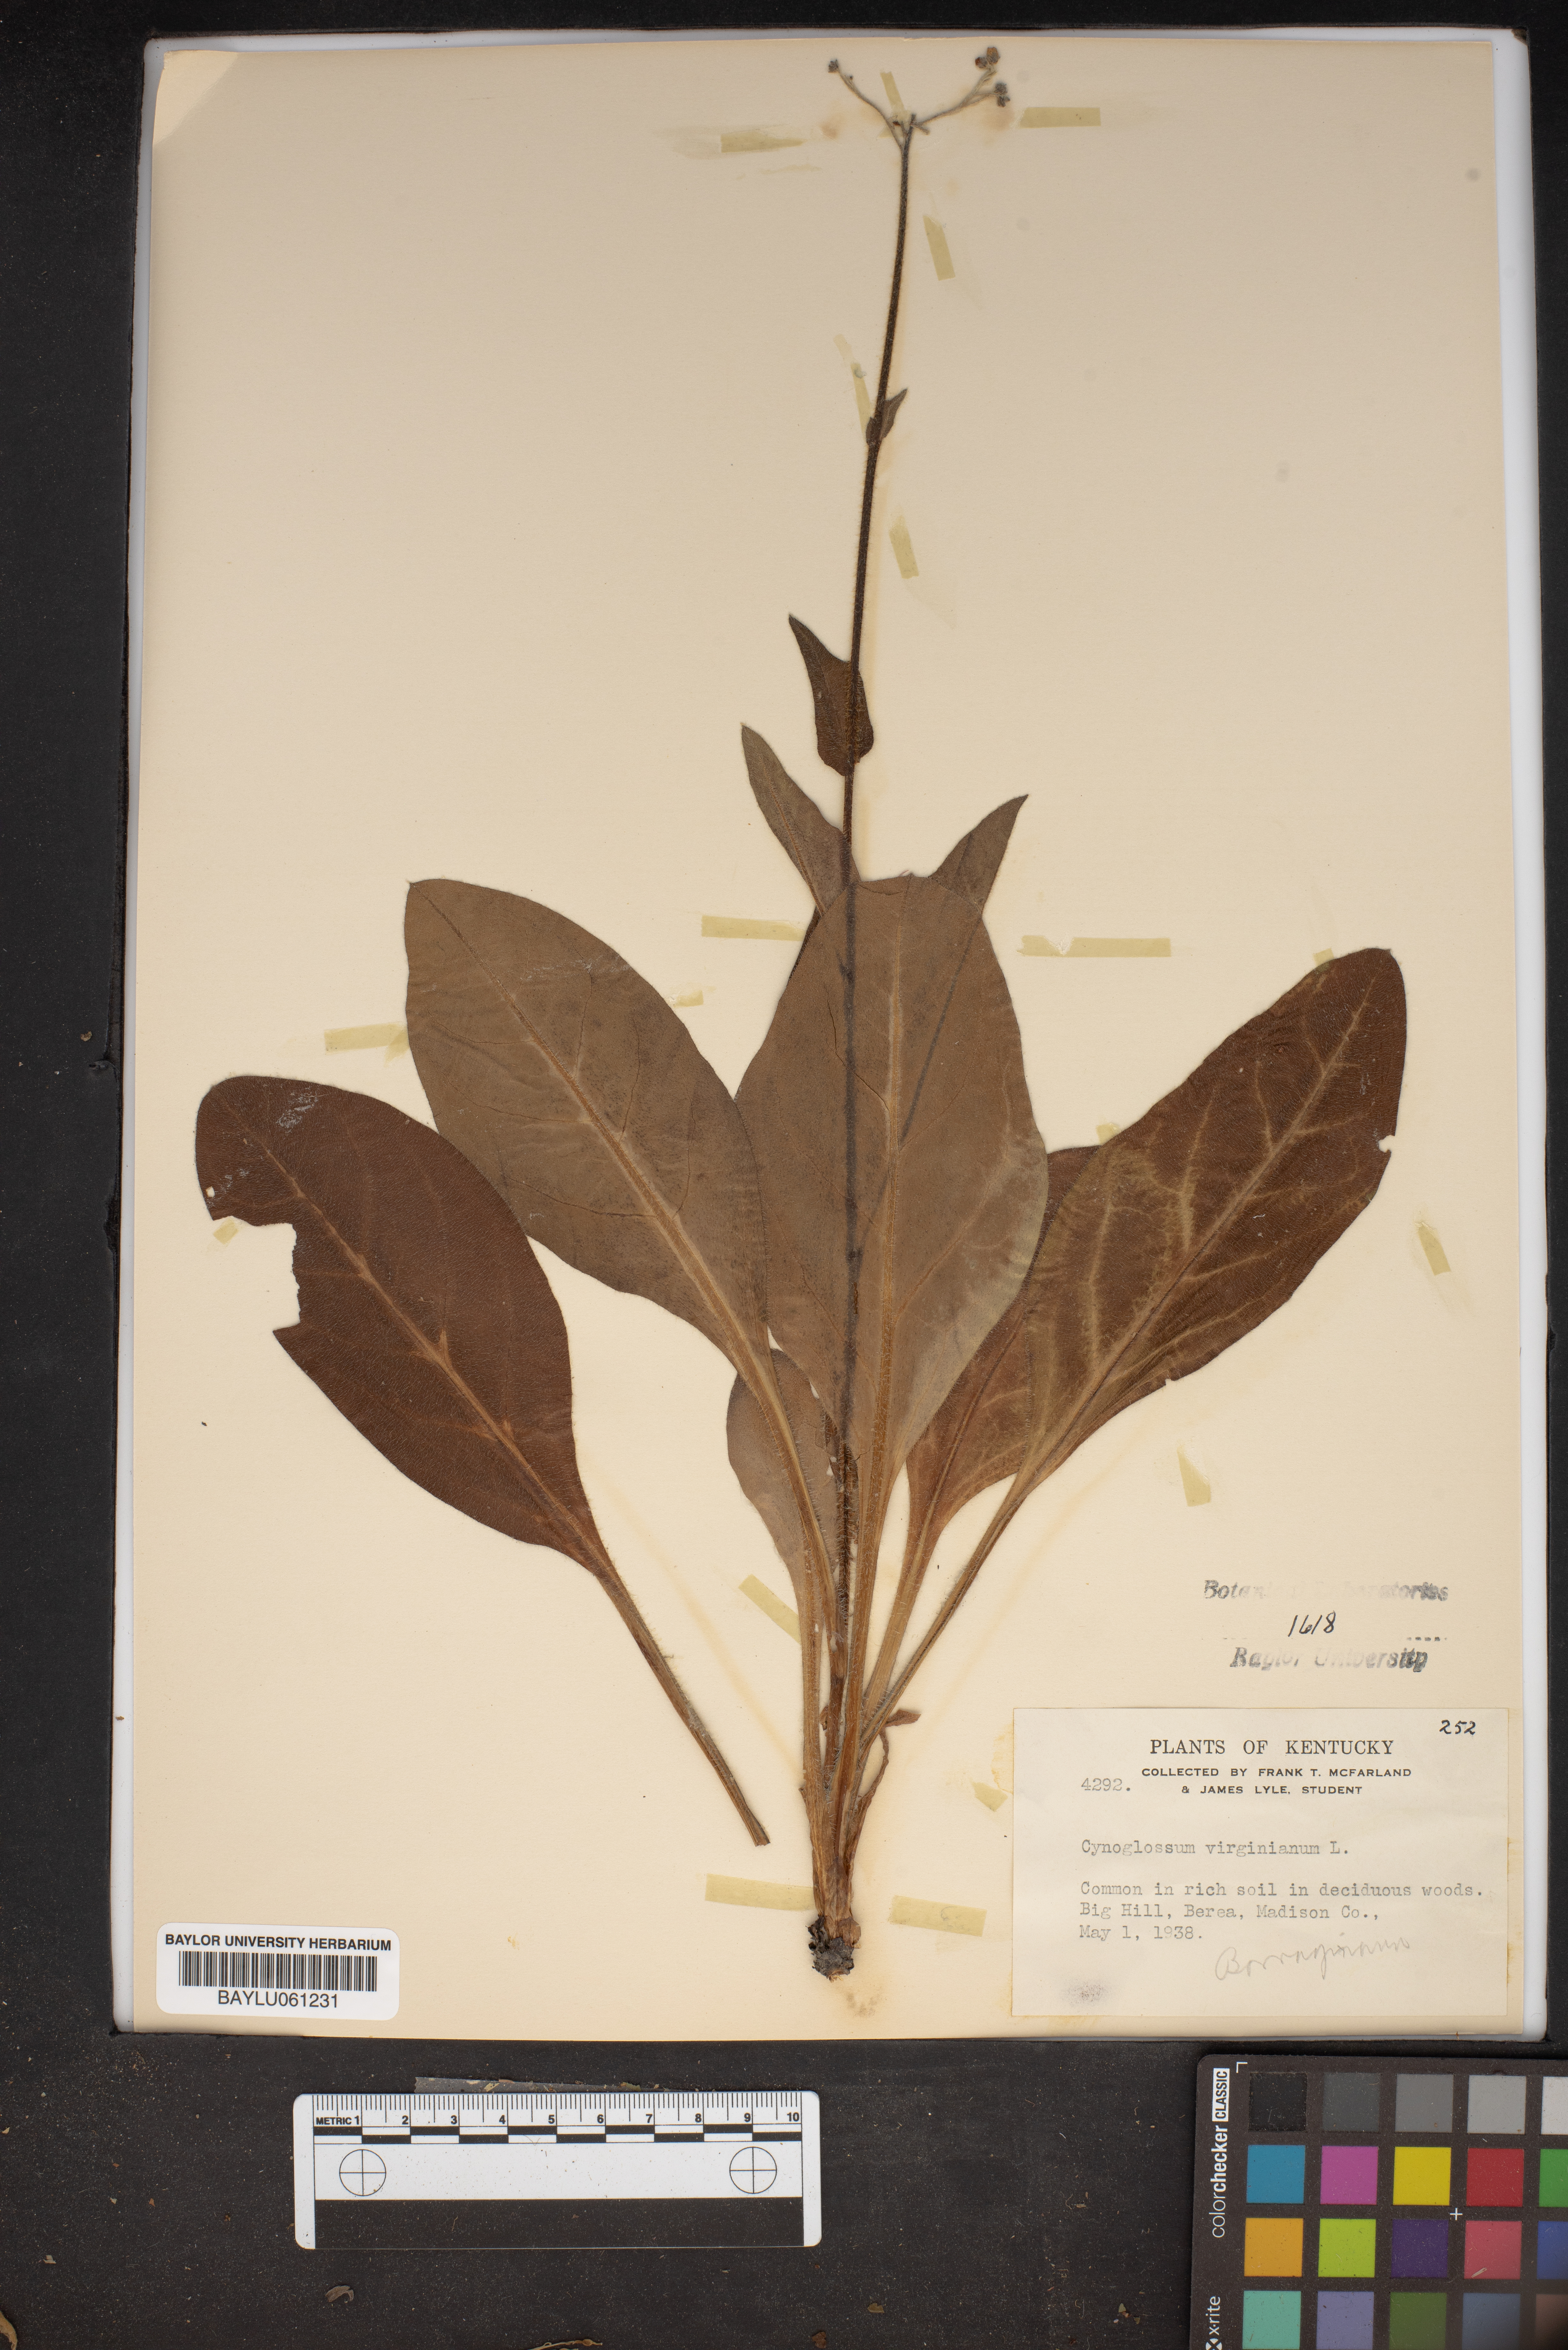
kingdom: Plantae
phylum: Tracheophyta
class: Magnoliopsida
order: Boraginales
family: Boraginaceae
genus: Andersonglossum
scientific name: Andersonglossum virginianum
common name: Wild comfrey
